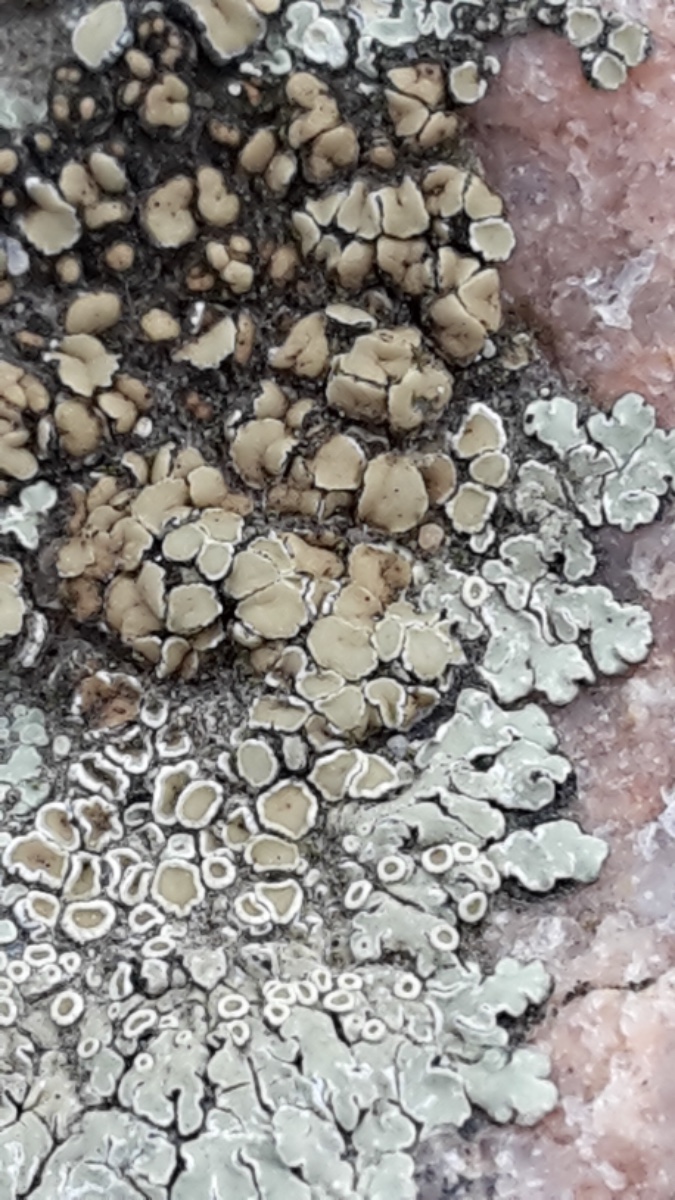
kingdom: Fungi
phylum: Ascomycota
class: Lecanoromycetes
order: Lecanorales
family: Lecanoraceae
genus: Protoparmeliopsis
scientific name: Protoparmeliopsis muralis
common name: randfliget kantskivelav
